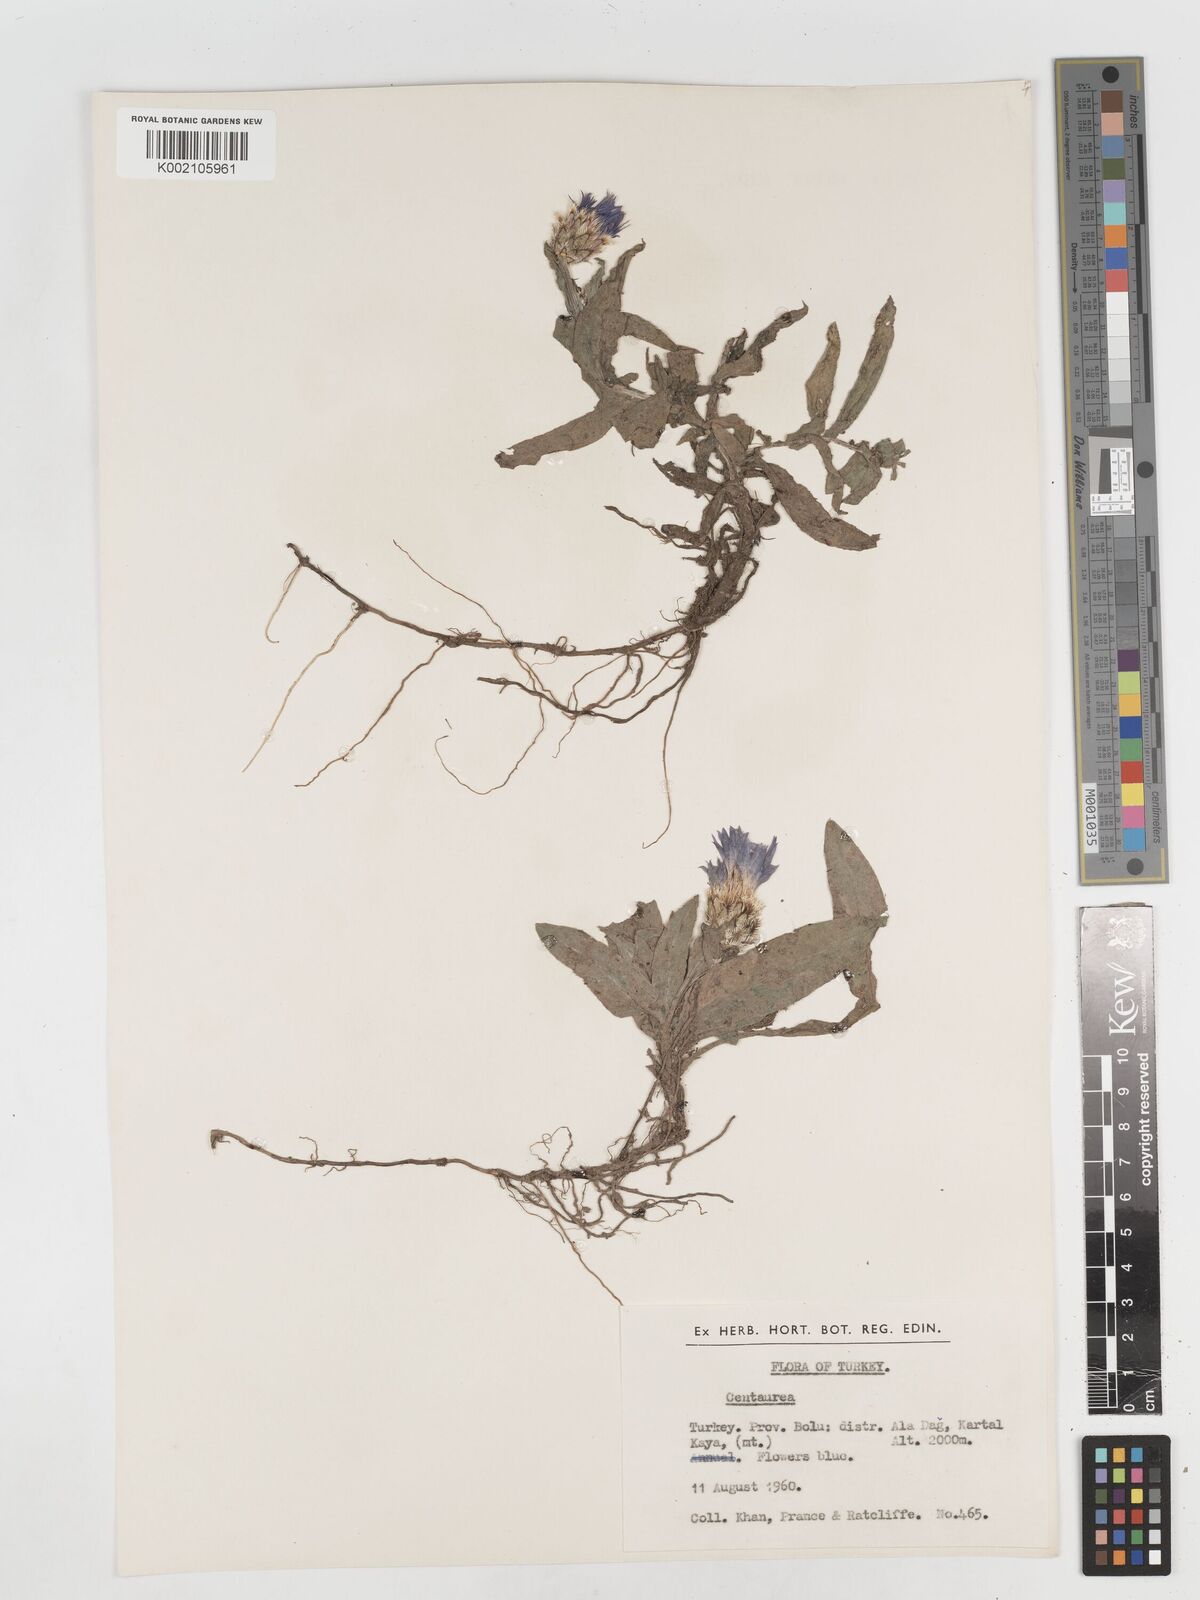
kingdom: Plantae
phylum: Tracheophyta
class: Magnoliopsida
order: Asterales
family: Asteraceae
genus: Centaurea
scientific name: Centaurea
